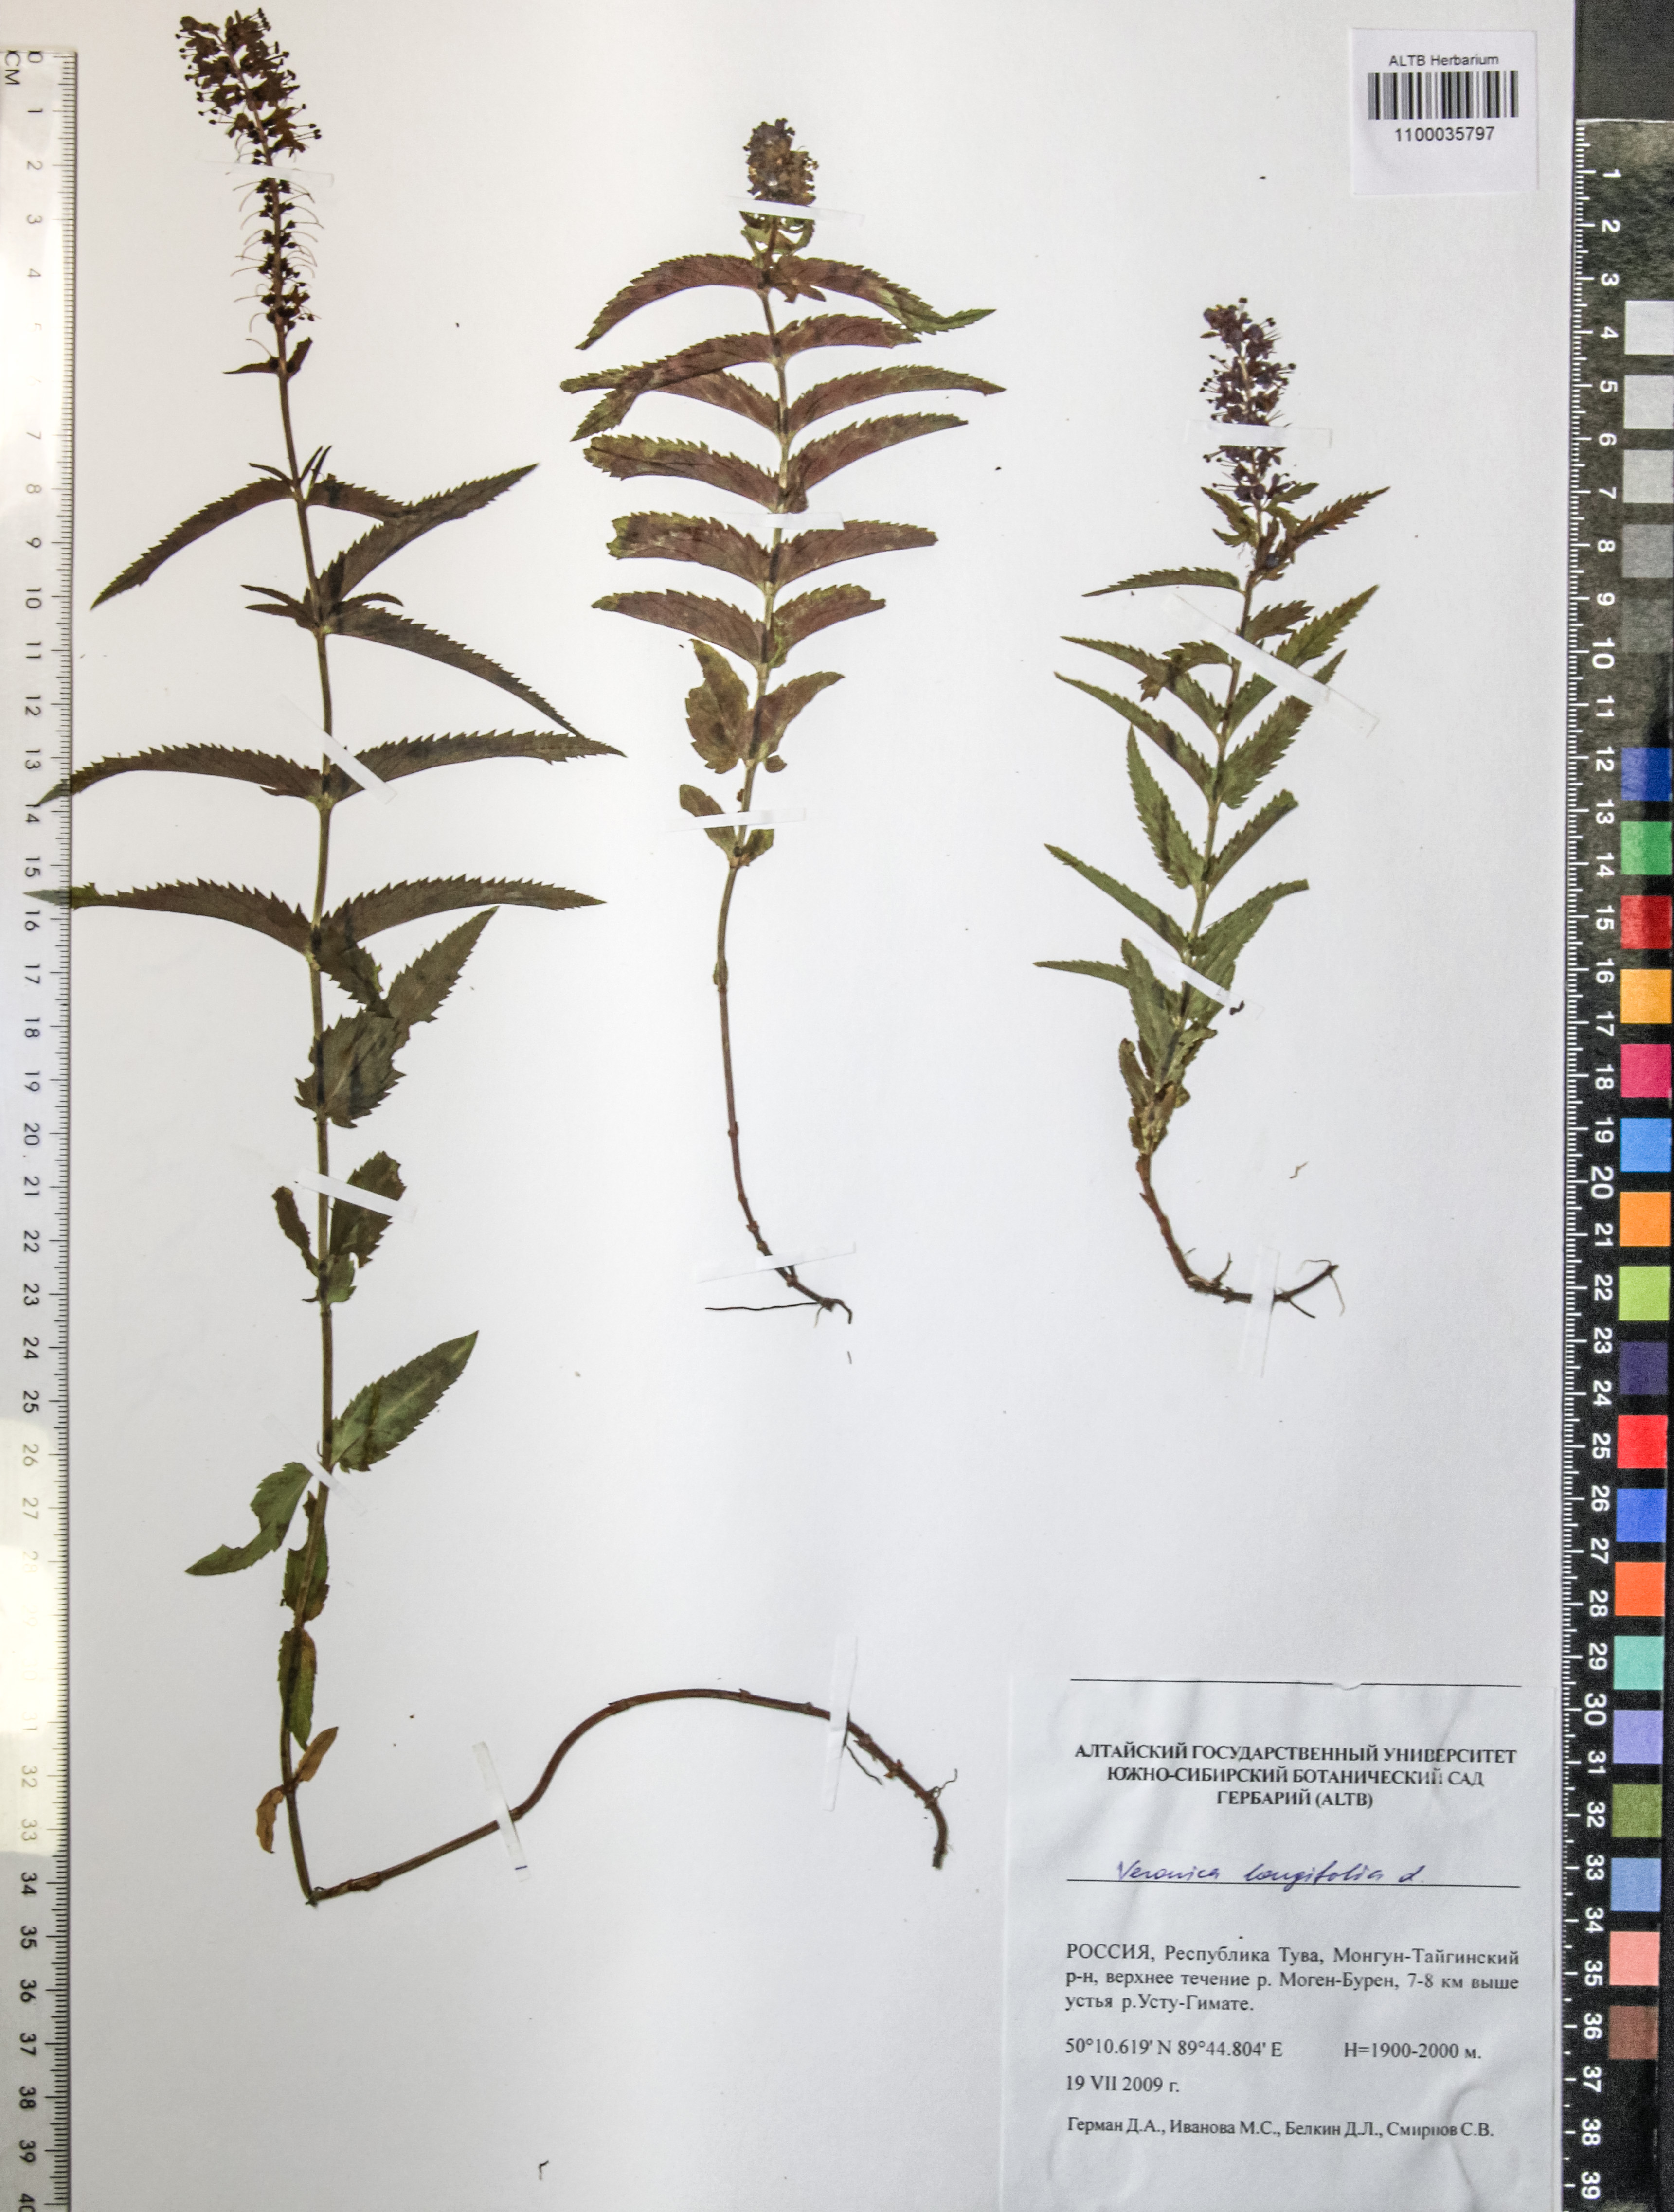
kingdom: Plantae
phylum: Tracheophyta
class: Magnoliopsida
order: Lamiales
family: Plantaginaceae
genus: Veronica
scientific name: Veronica longifolia
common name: Garden speedwell
